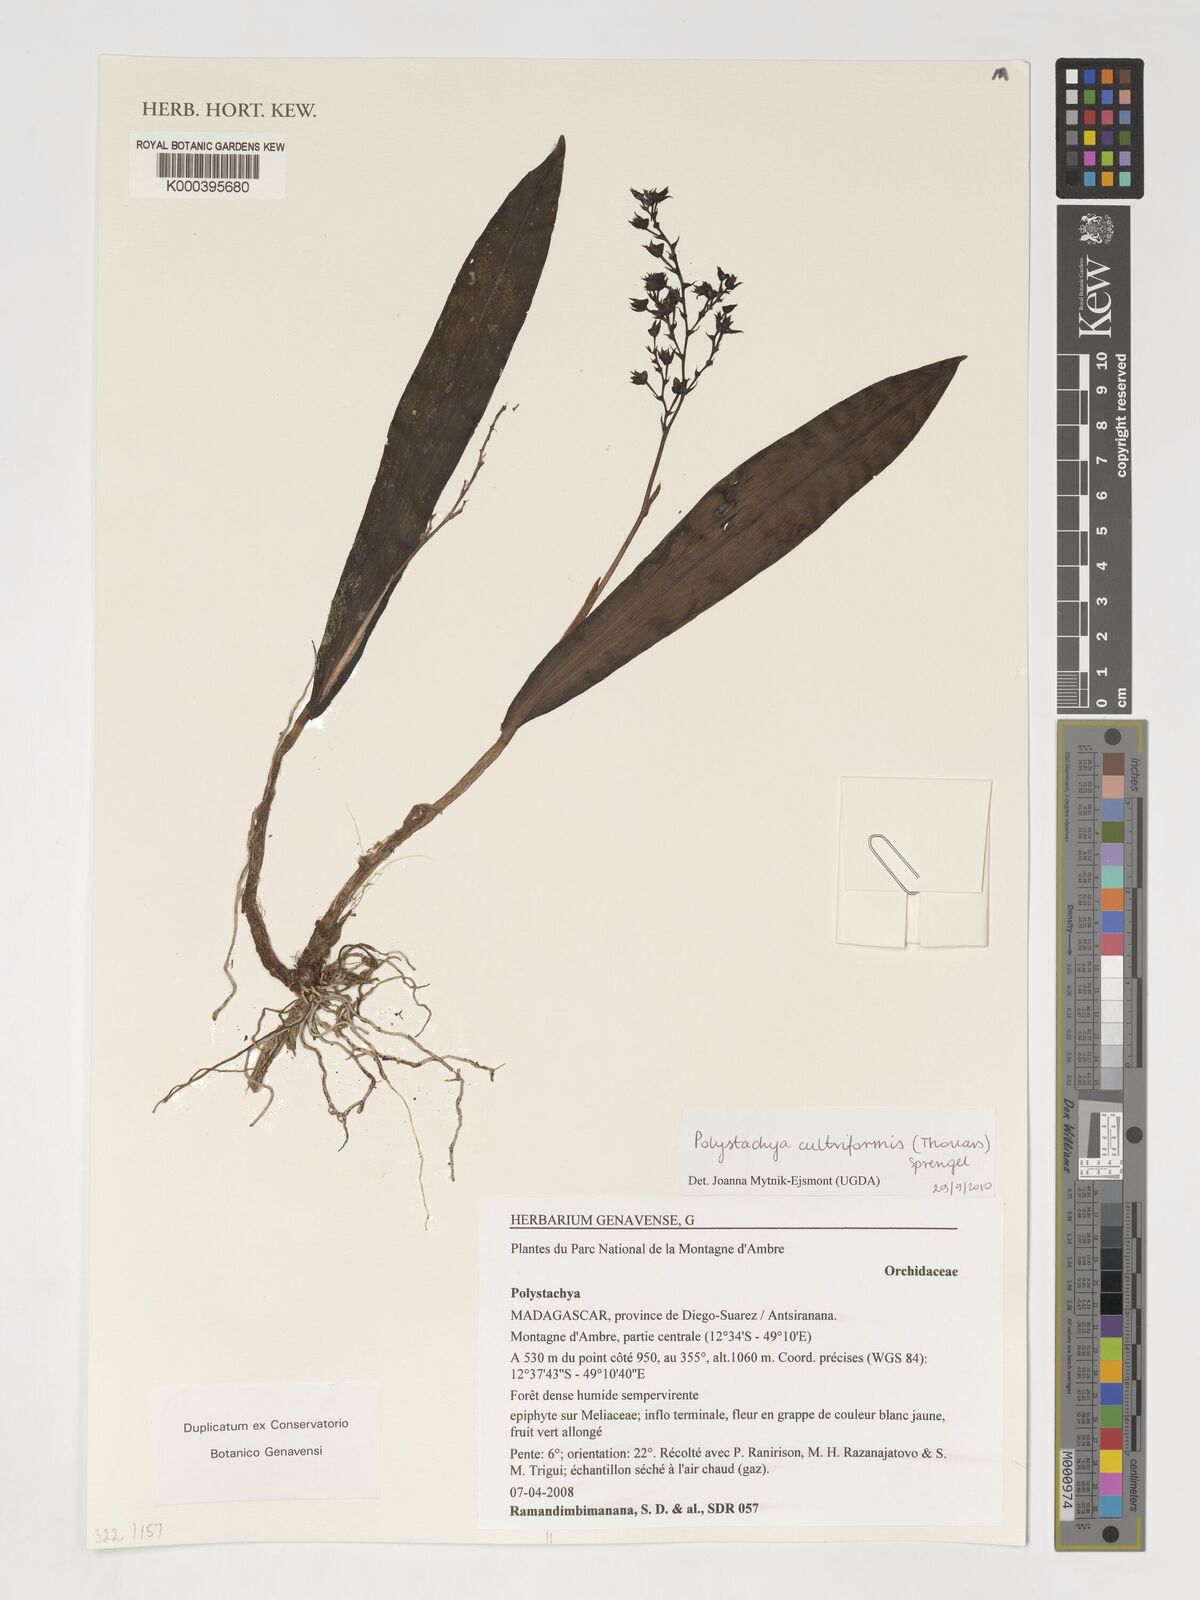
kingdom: Plantae
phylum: Tracheophyta
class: Liliopsida
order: Asparagales
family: Orchidaceae
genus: Polystachya
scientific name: Polystachya cultriformis
